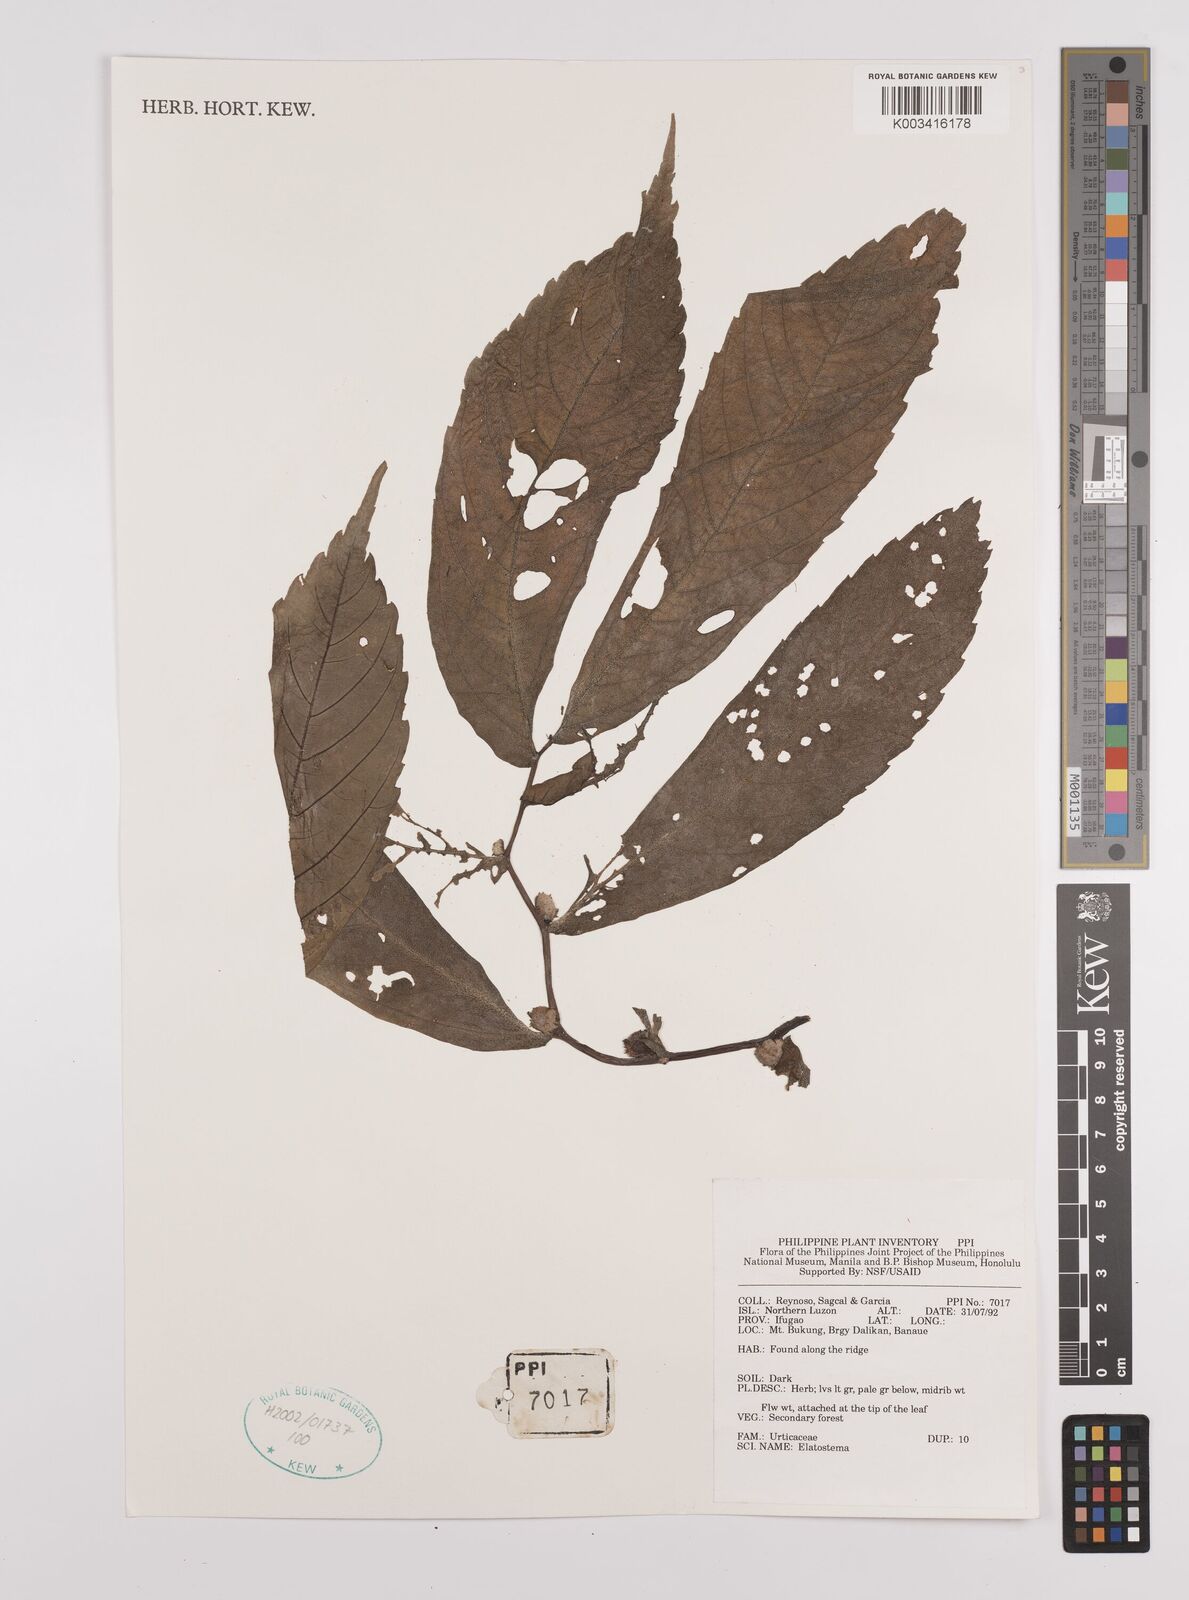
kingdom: Plantae
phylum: Tracheophyta
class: Magnoliopsida
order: Rosales
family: Urticaceae
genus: Elatostema
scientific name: Elatostema
